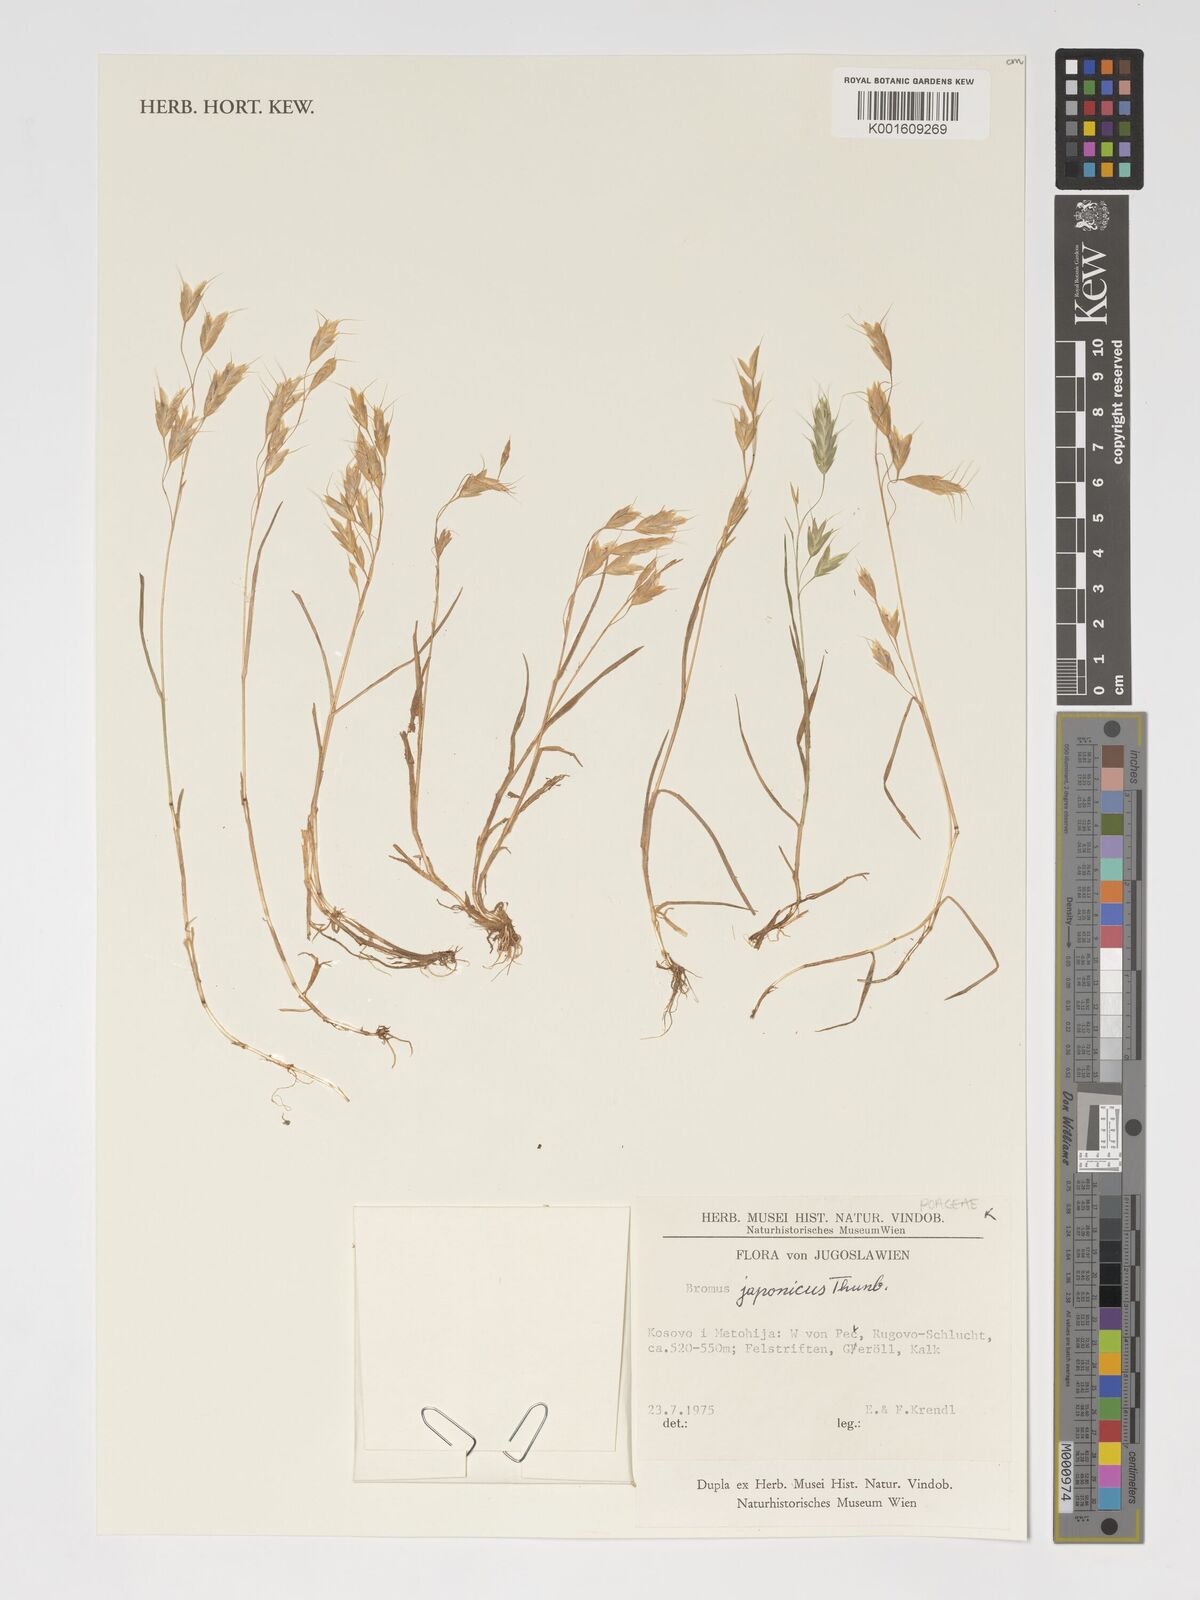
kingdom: Plantae
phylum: Tracheophyta
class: Liliopsida
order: Poales
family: Poaceae
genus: Bromus
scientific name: Bromus japonicus
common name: Japanese brome
